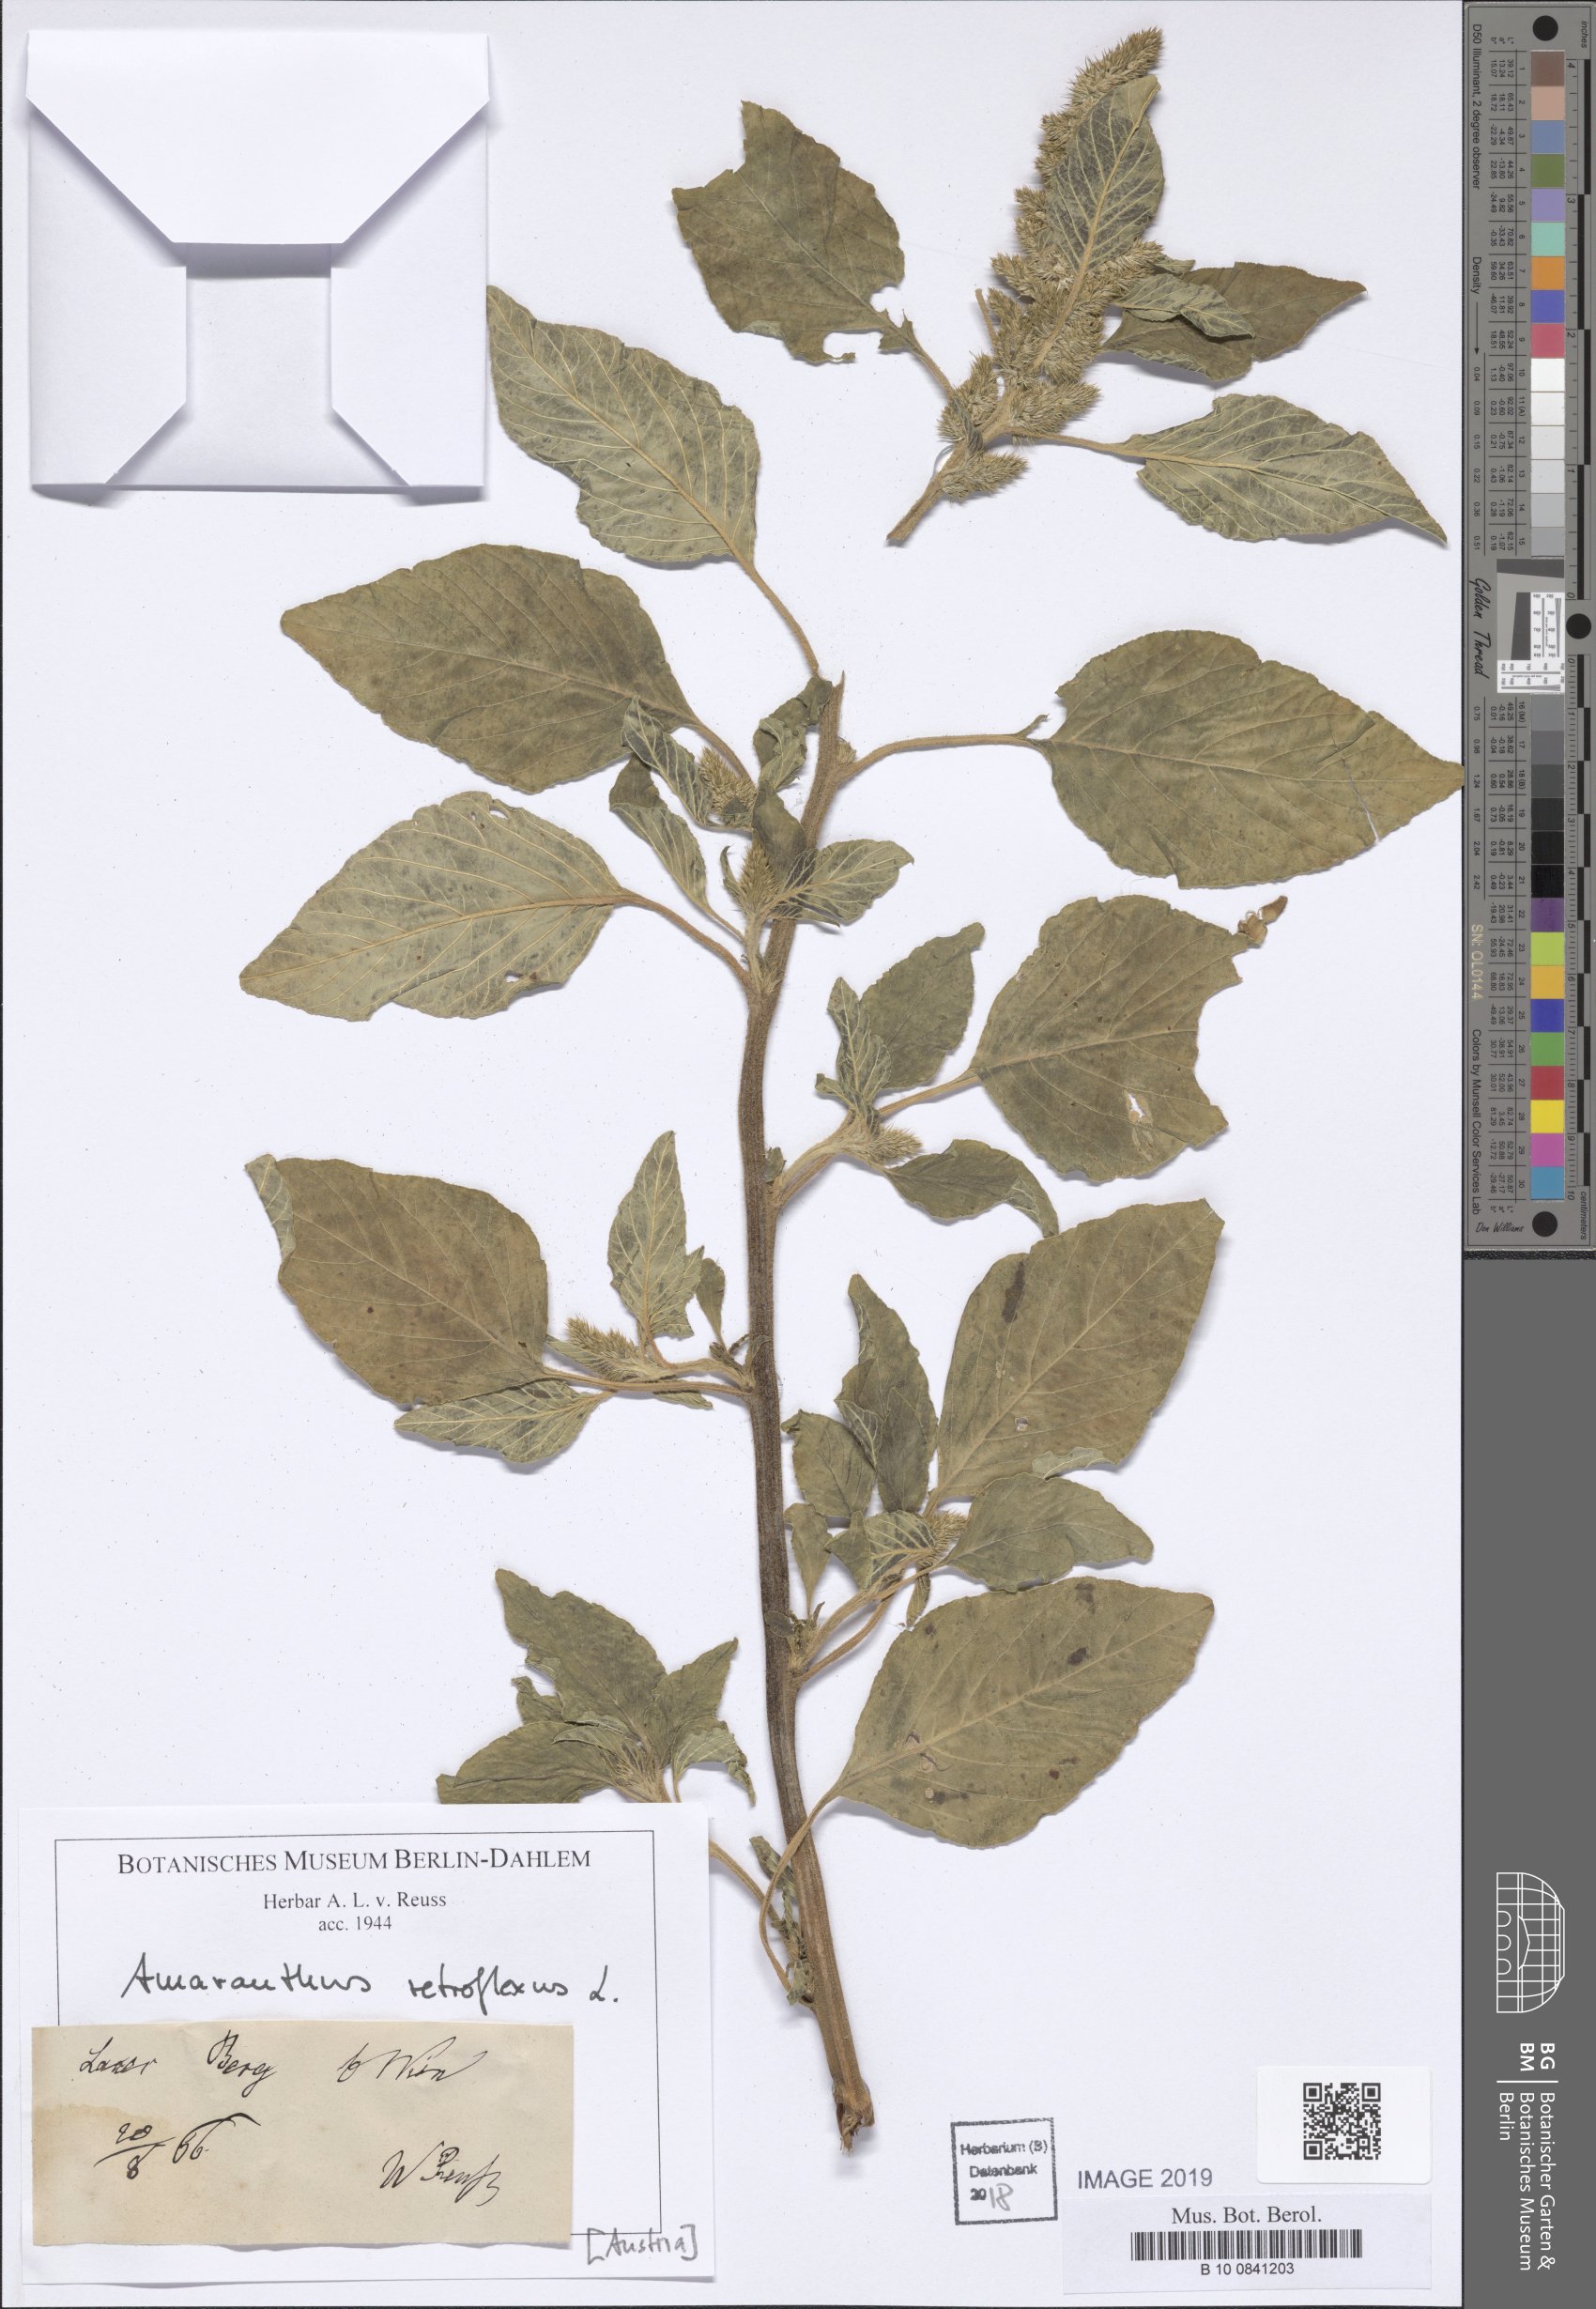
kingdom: Plantae
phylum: Tracheophyta
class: Magnoliopsida
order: Caryophyllales
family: Amaranthaceae
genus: Amaranthus
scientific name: Amaranthus retroflexus
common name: Redroot amaranth
